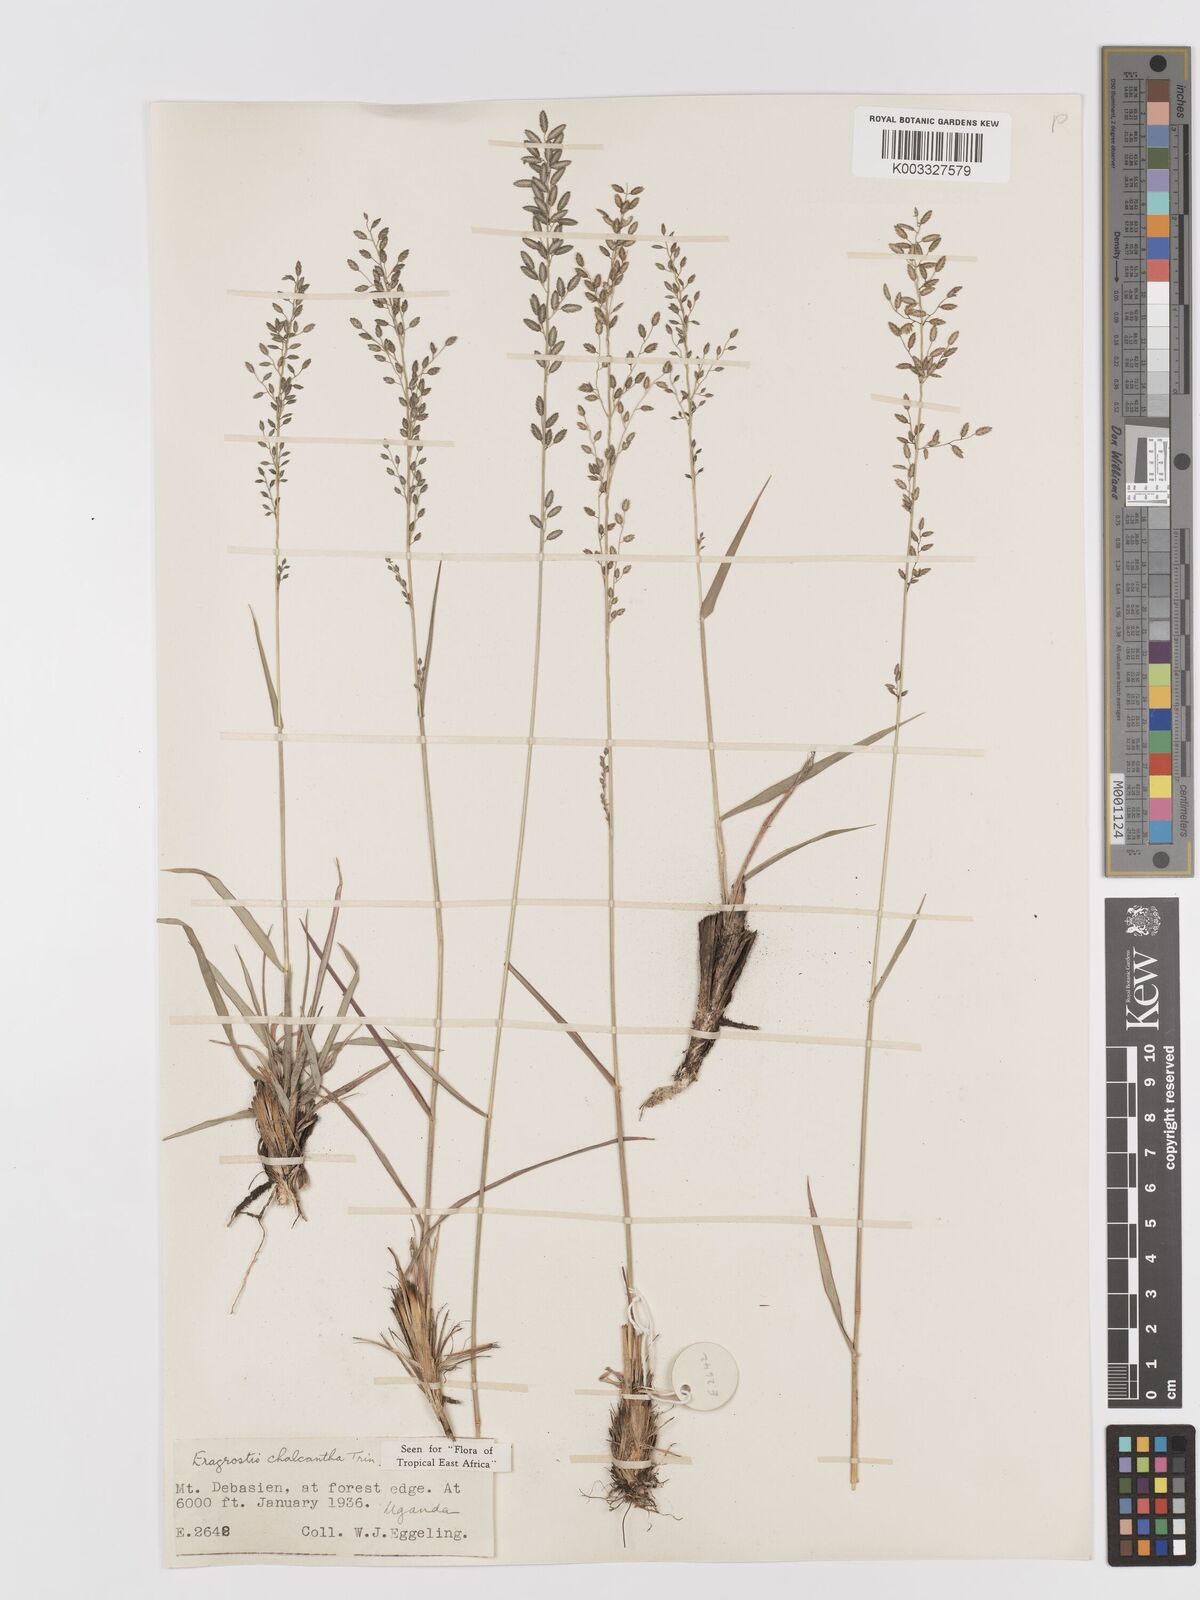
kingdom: Plantae
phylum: Tracheophyta
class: Liliopsida
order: Poales
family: Poaceae
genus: Eragrostis
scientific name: Eragrostis racemosa
